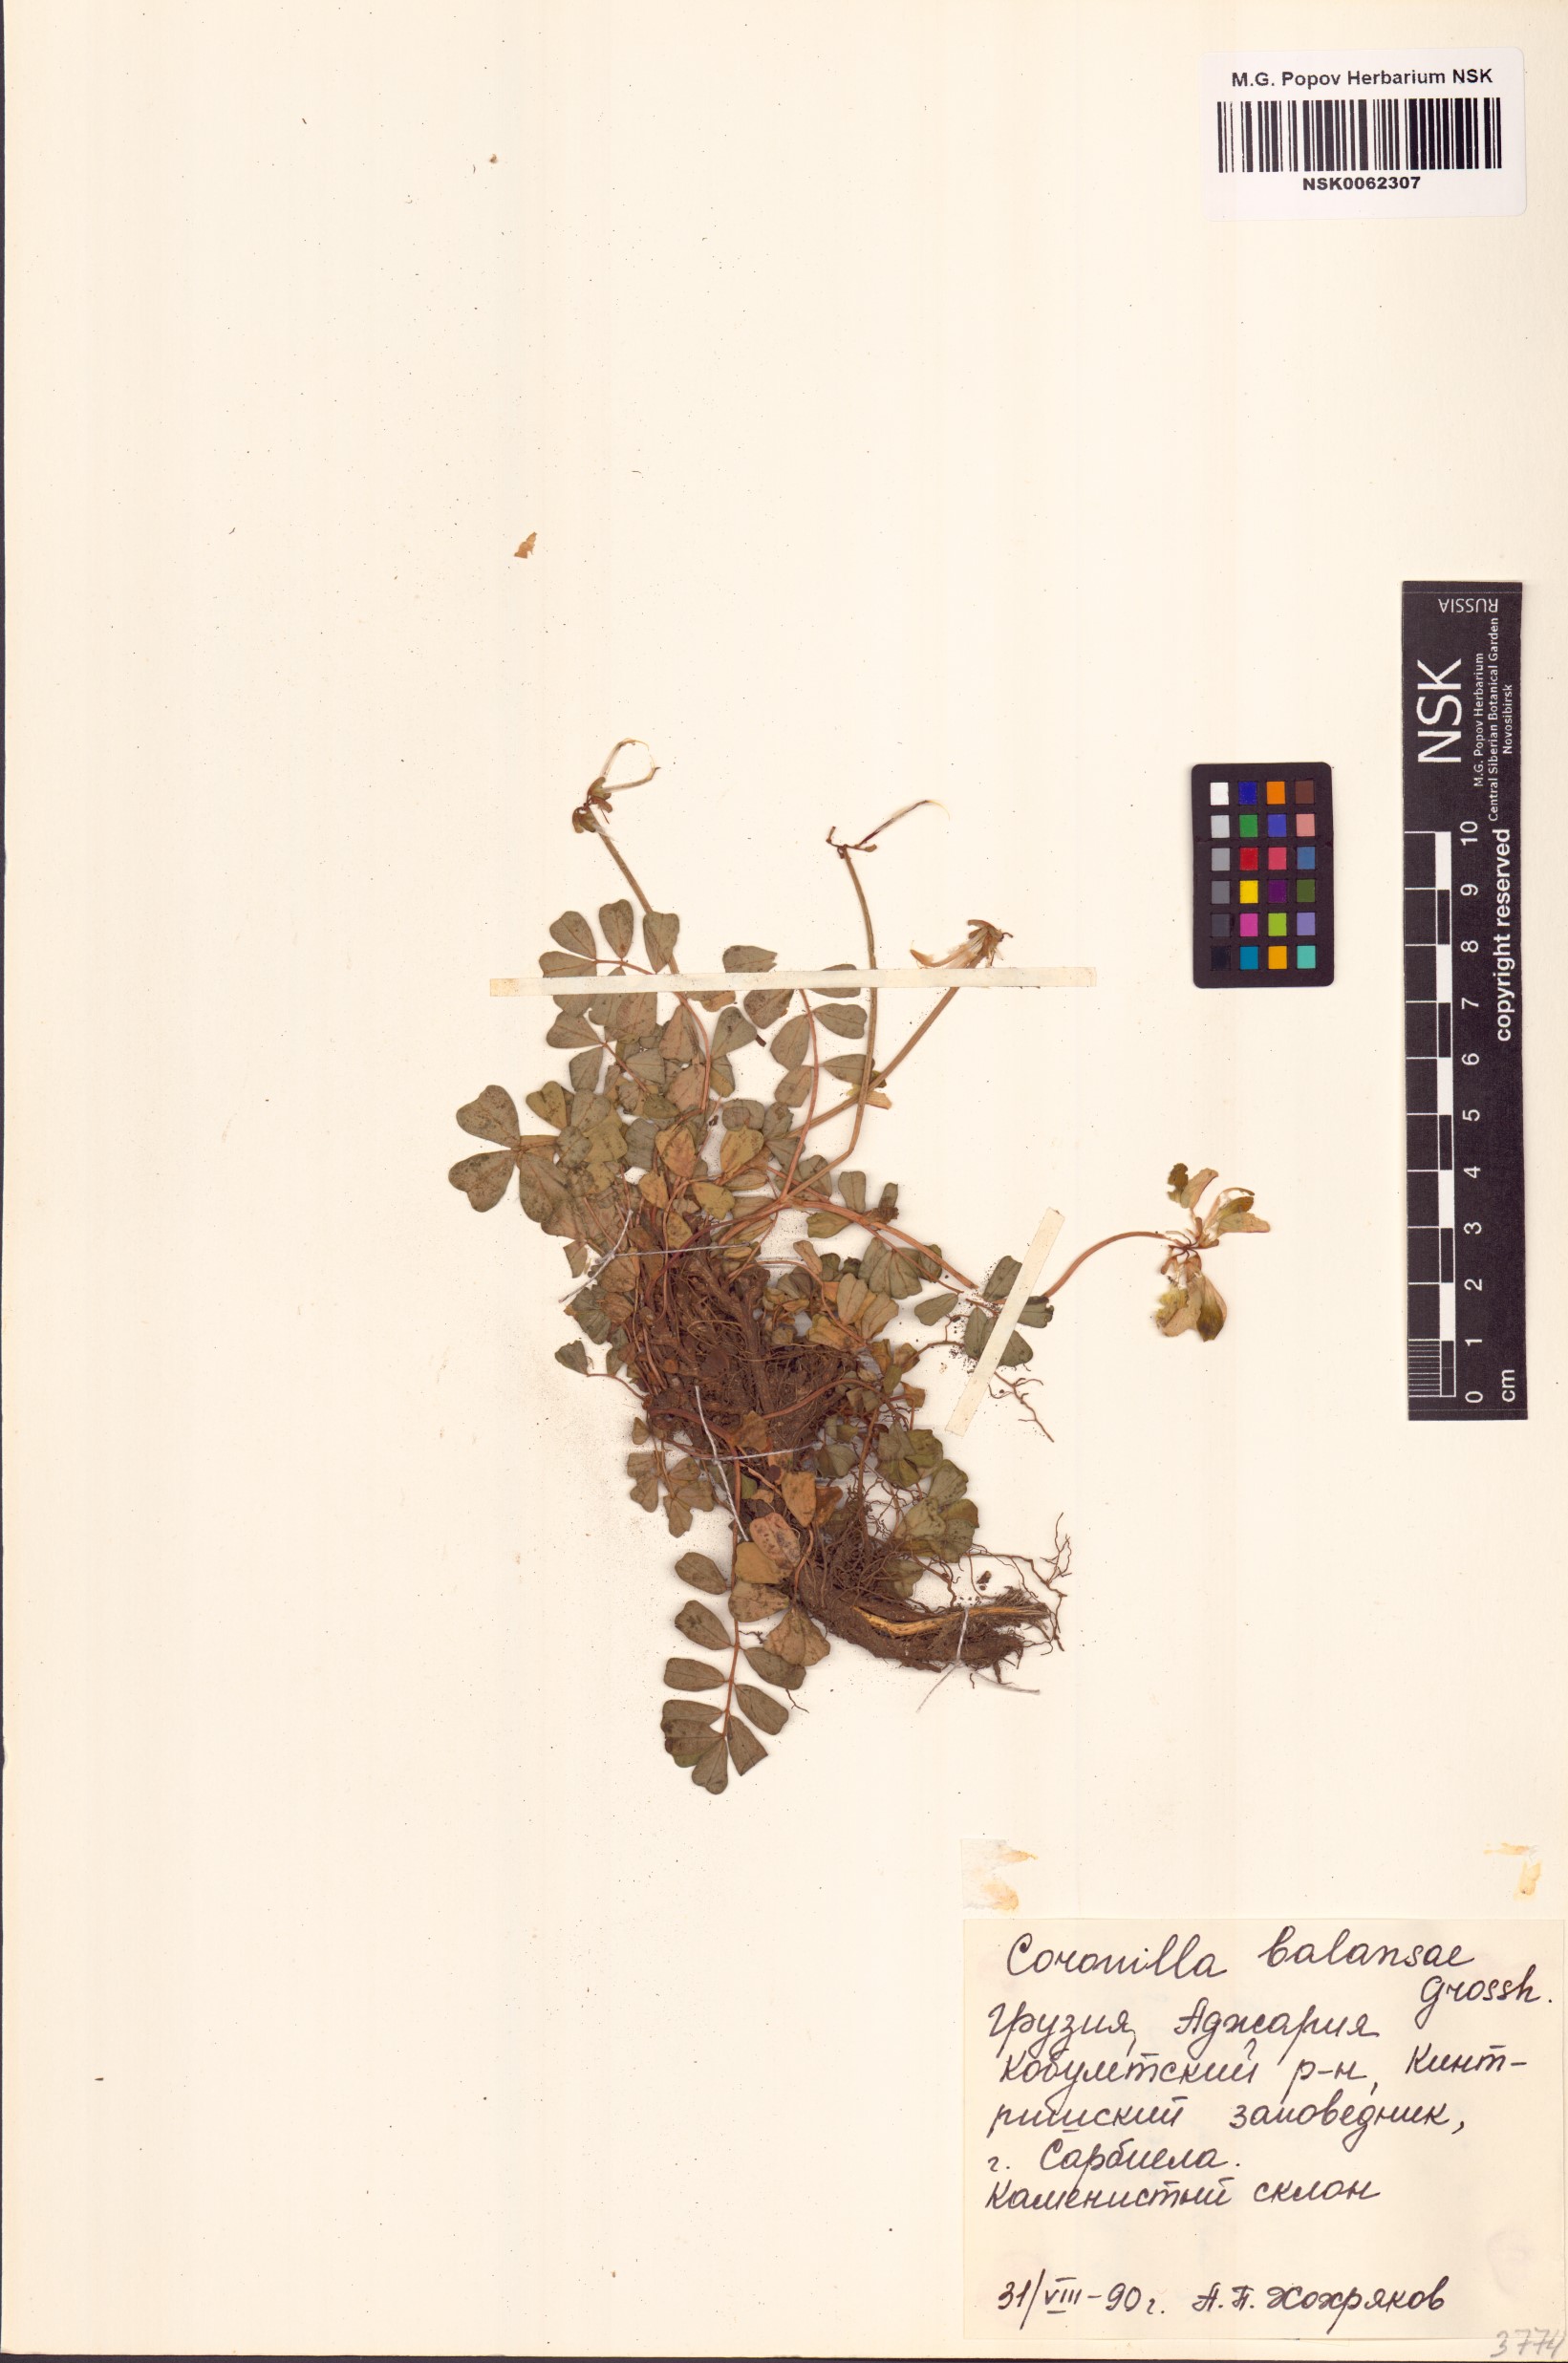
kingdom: Plantae
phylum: Tracheophyta
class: Magnoliopsida
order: Fabales
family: Fabaceae
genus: Coronilla
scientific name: Coronilla orientalis
